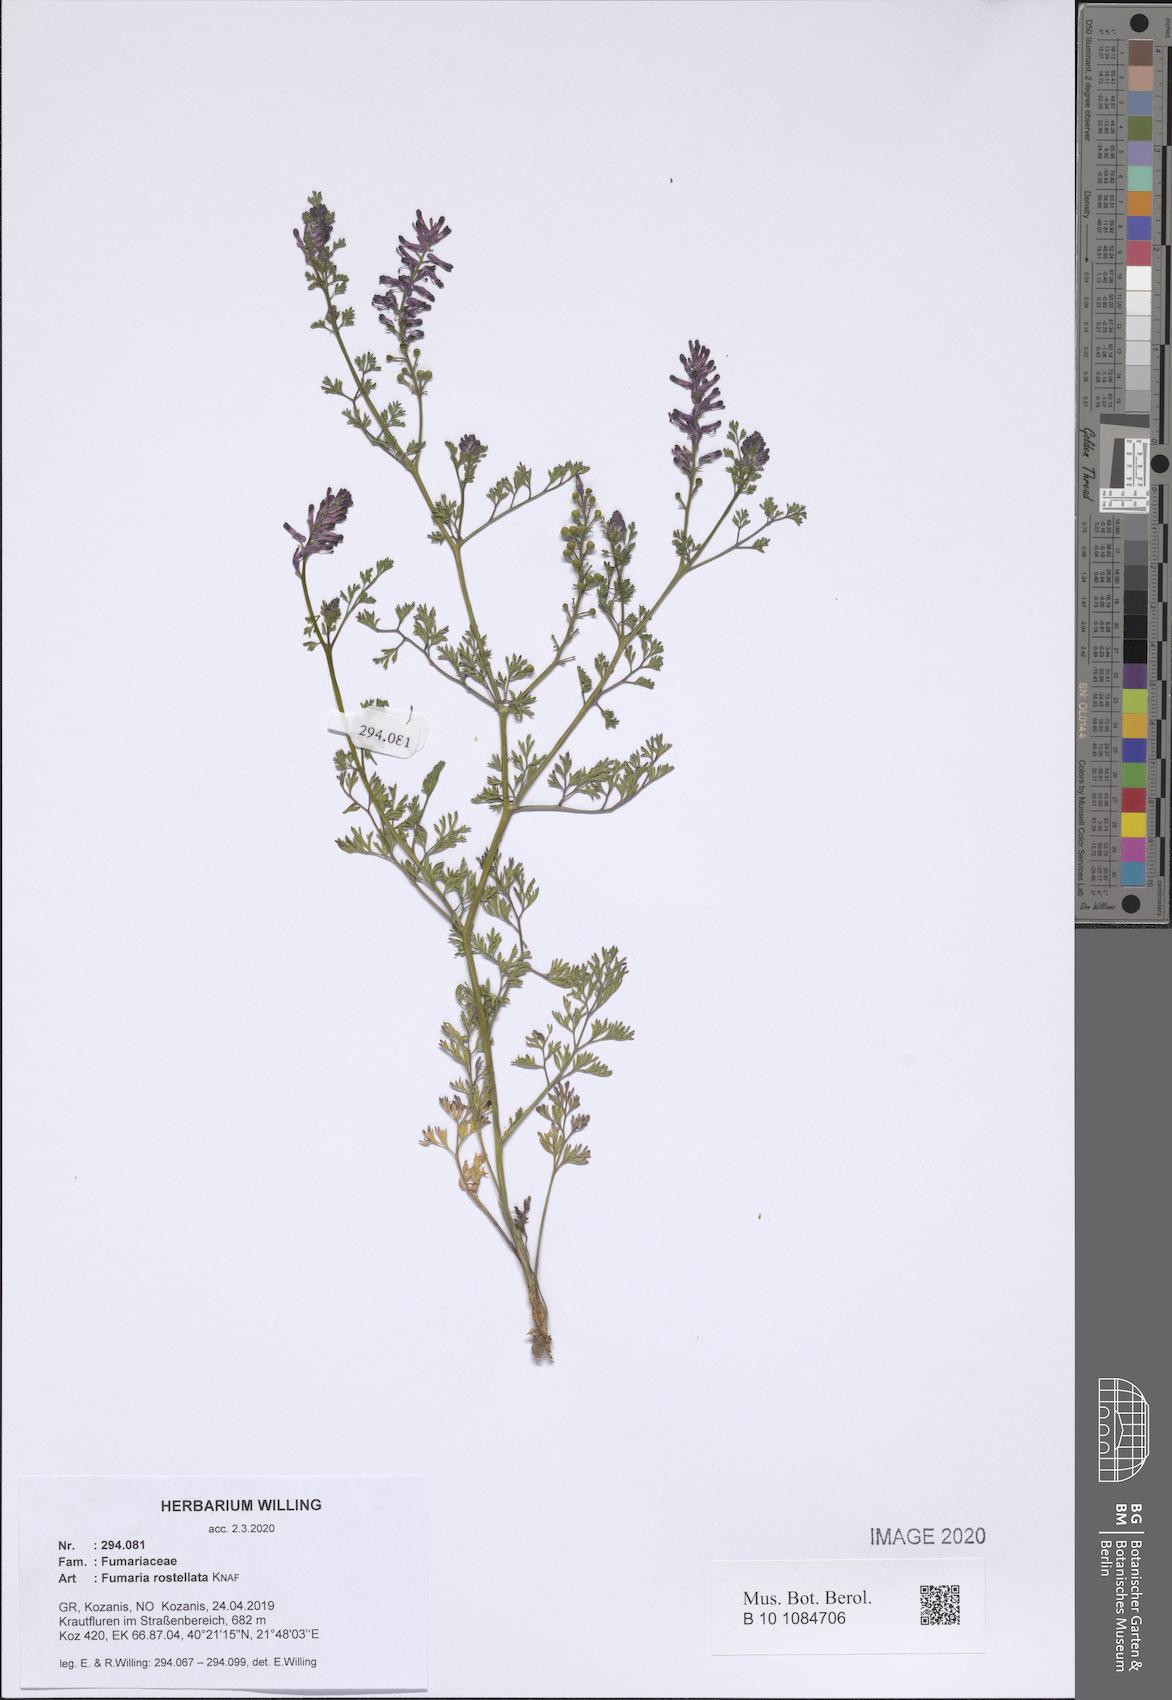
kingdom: Plantae
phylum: Tracheophyta
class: Magnoliopsida
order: Ranunculales
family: Papaveraceae
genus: Fumaria
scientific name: Fumaria rostellata
